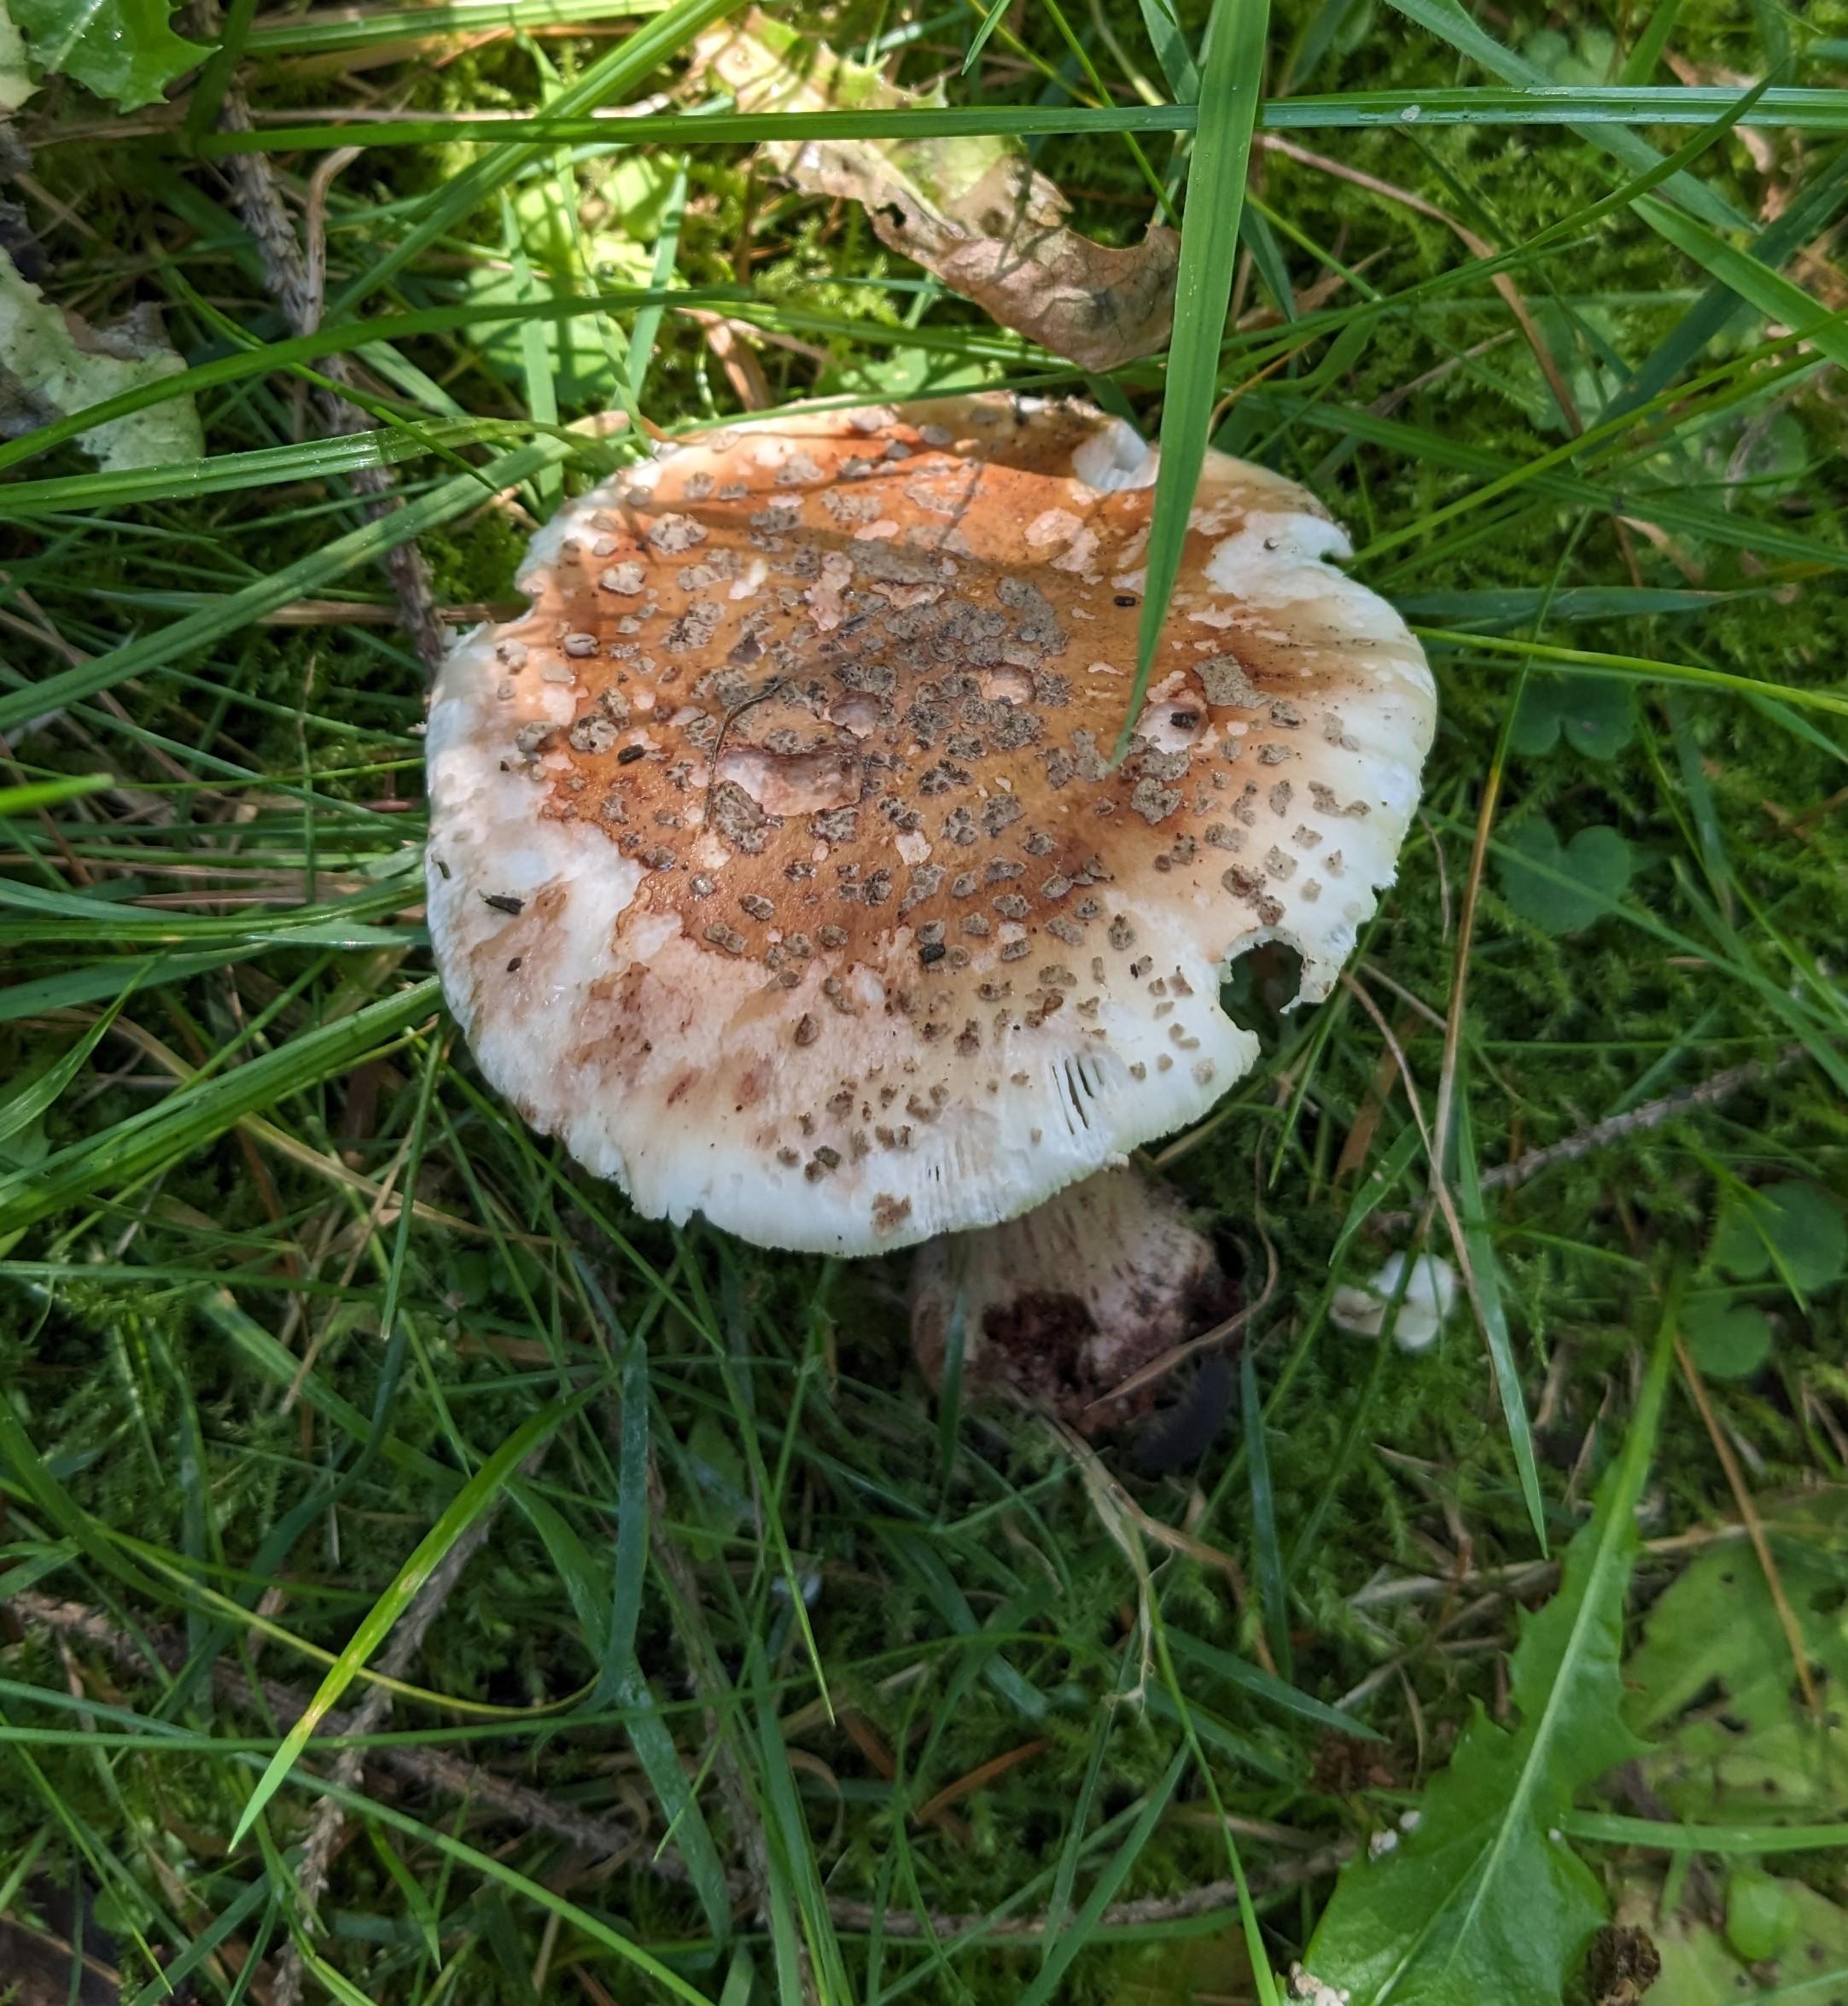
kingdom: Fungi
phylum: Basidiomycota
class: Agaricomycetes
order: Agaricales
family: Amanitaceae
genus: Amanita
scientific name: Amanita rubescens
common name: rødmende fluesvamp
